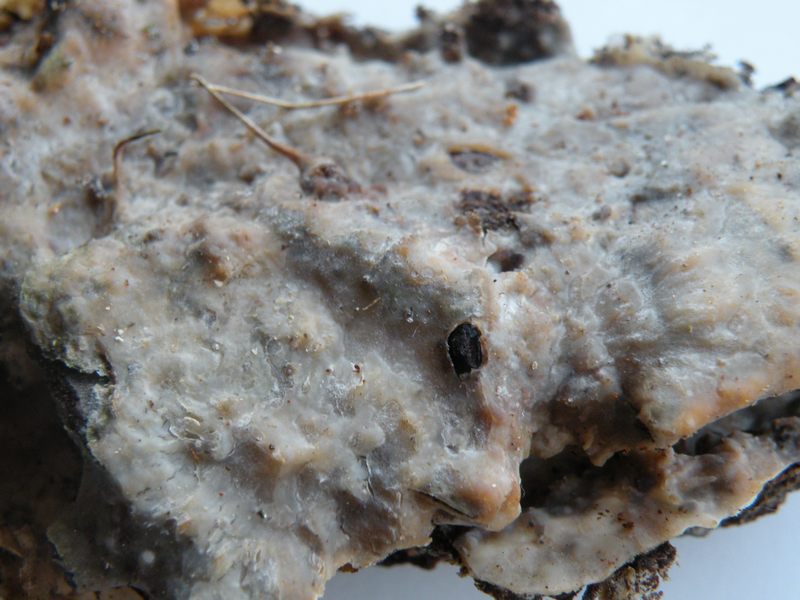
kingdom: Fungi
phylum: Basidiomycota
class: Agaricomycetes
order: Polyporales
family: Phanerochaetaceae
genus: Phlebiopsis
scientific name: Phlebiopsis gigantea
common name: kæmpebarksvamp
